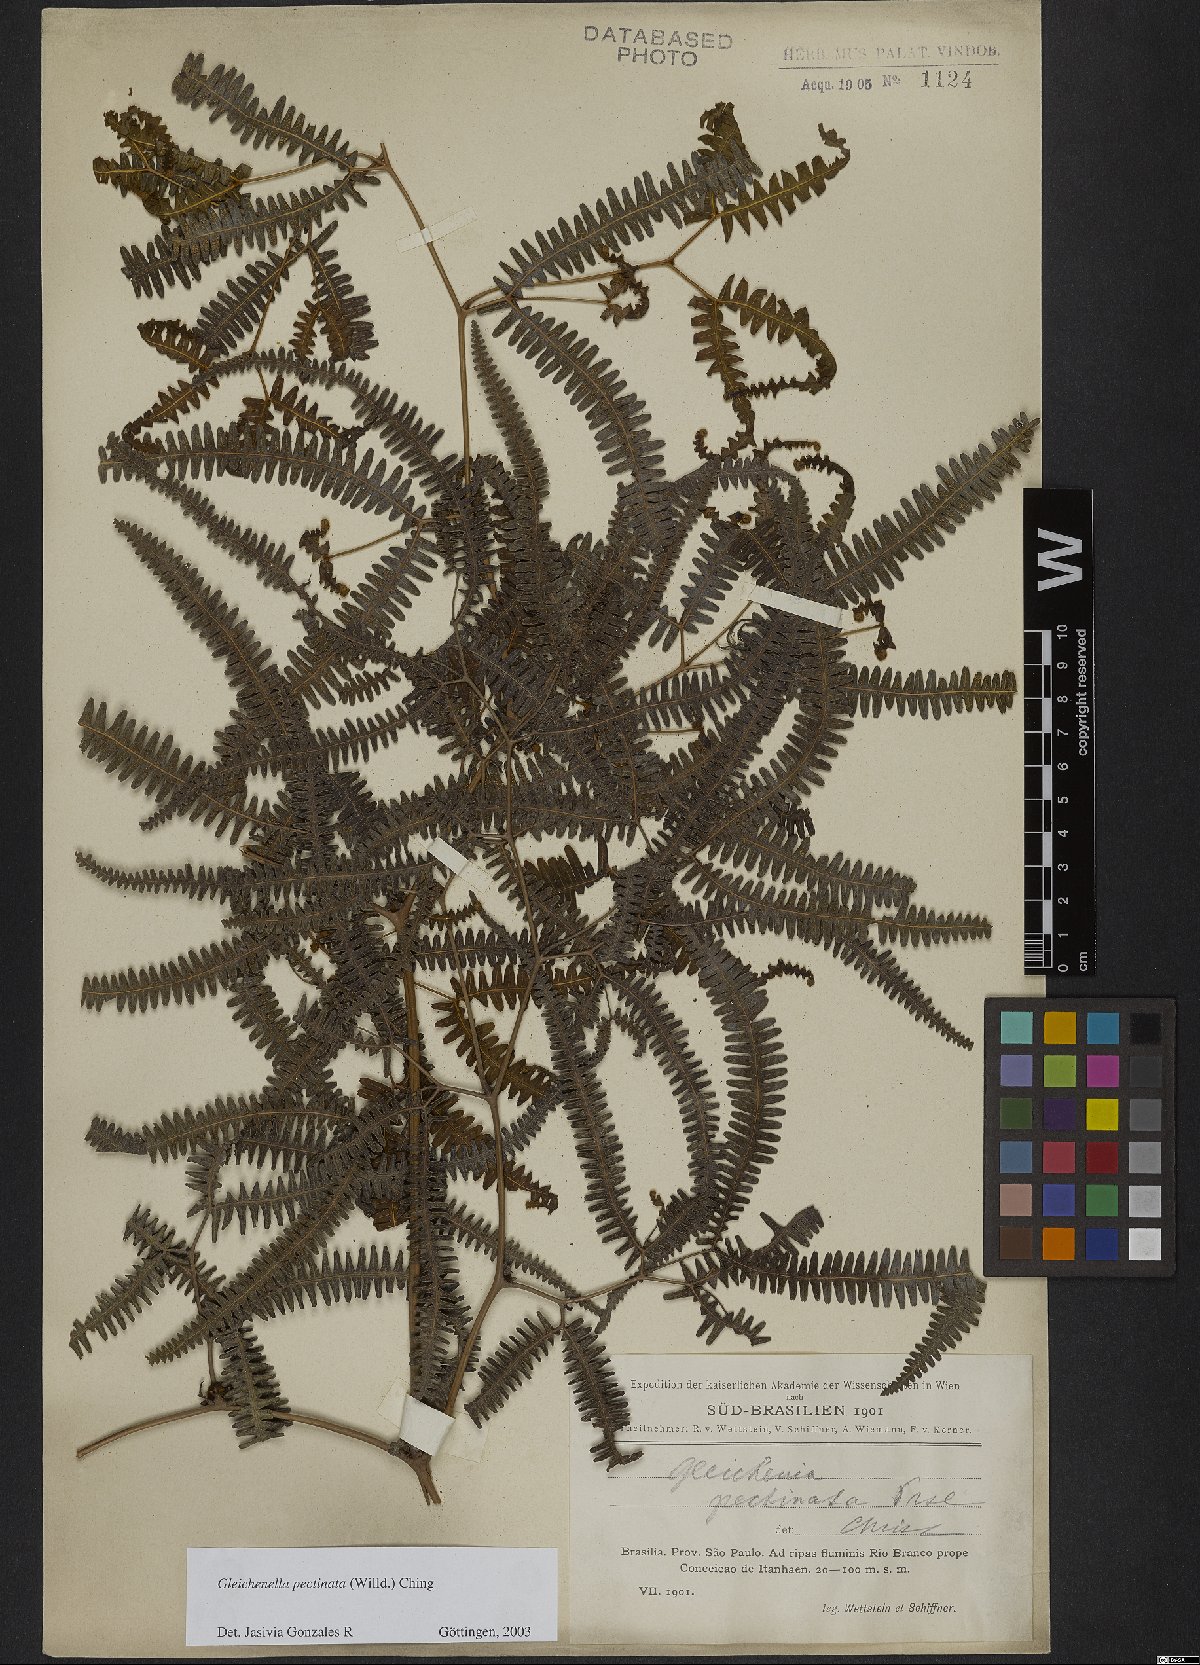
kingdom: Plantae
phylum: Tracheophyta
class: Polypodiopsida
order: Gleicheniales
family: Gleicheniaceae
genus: Gleichenella
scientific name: Gleichenella pectinata
